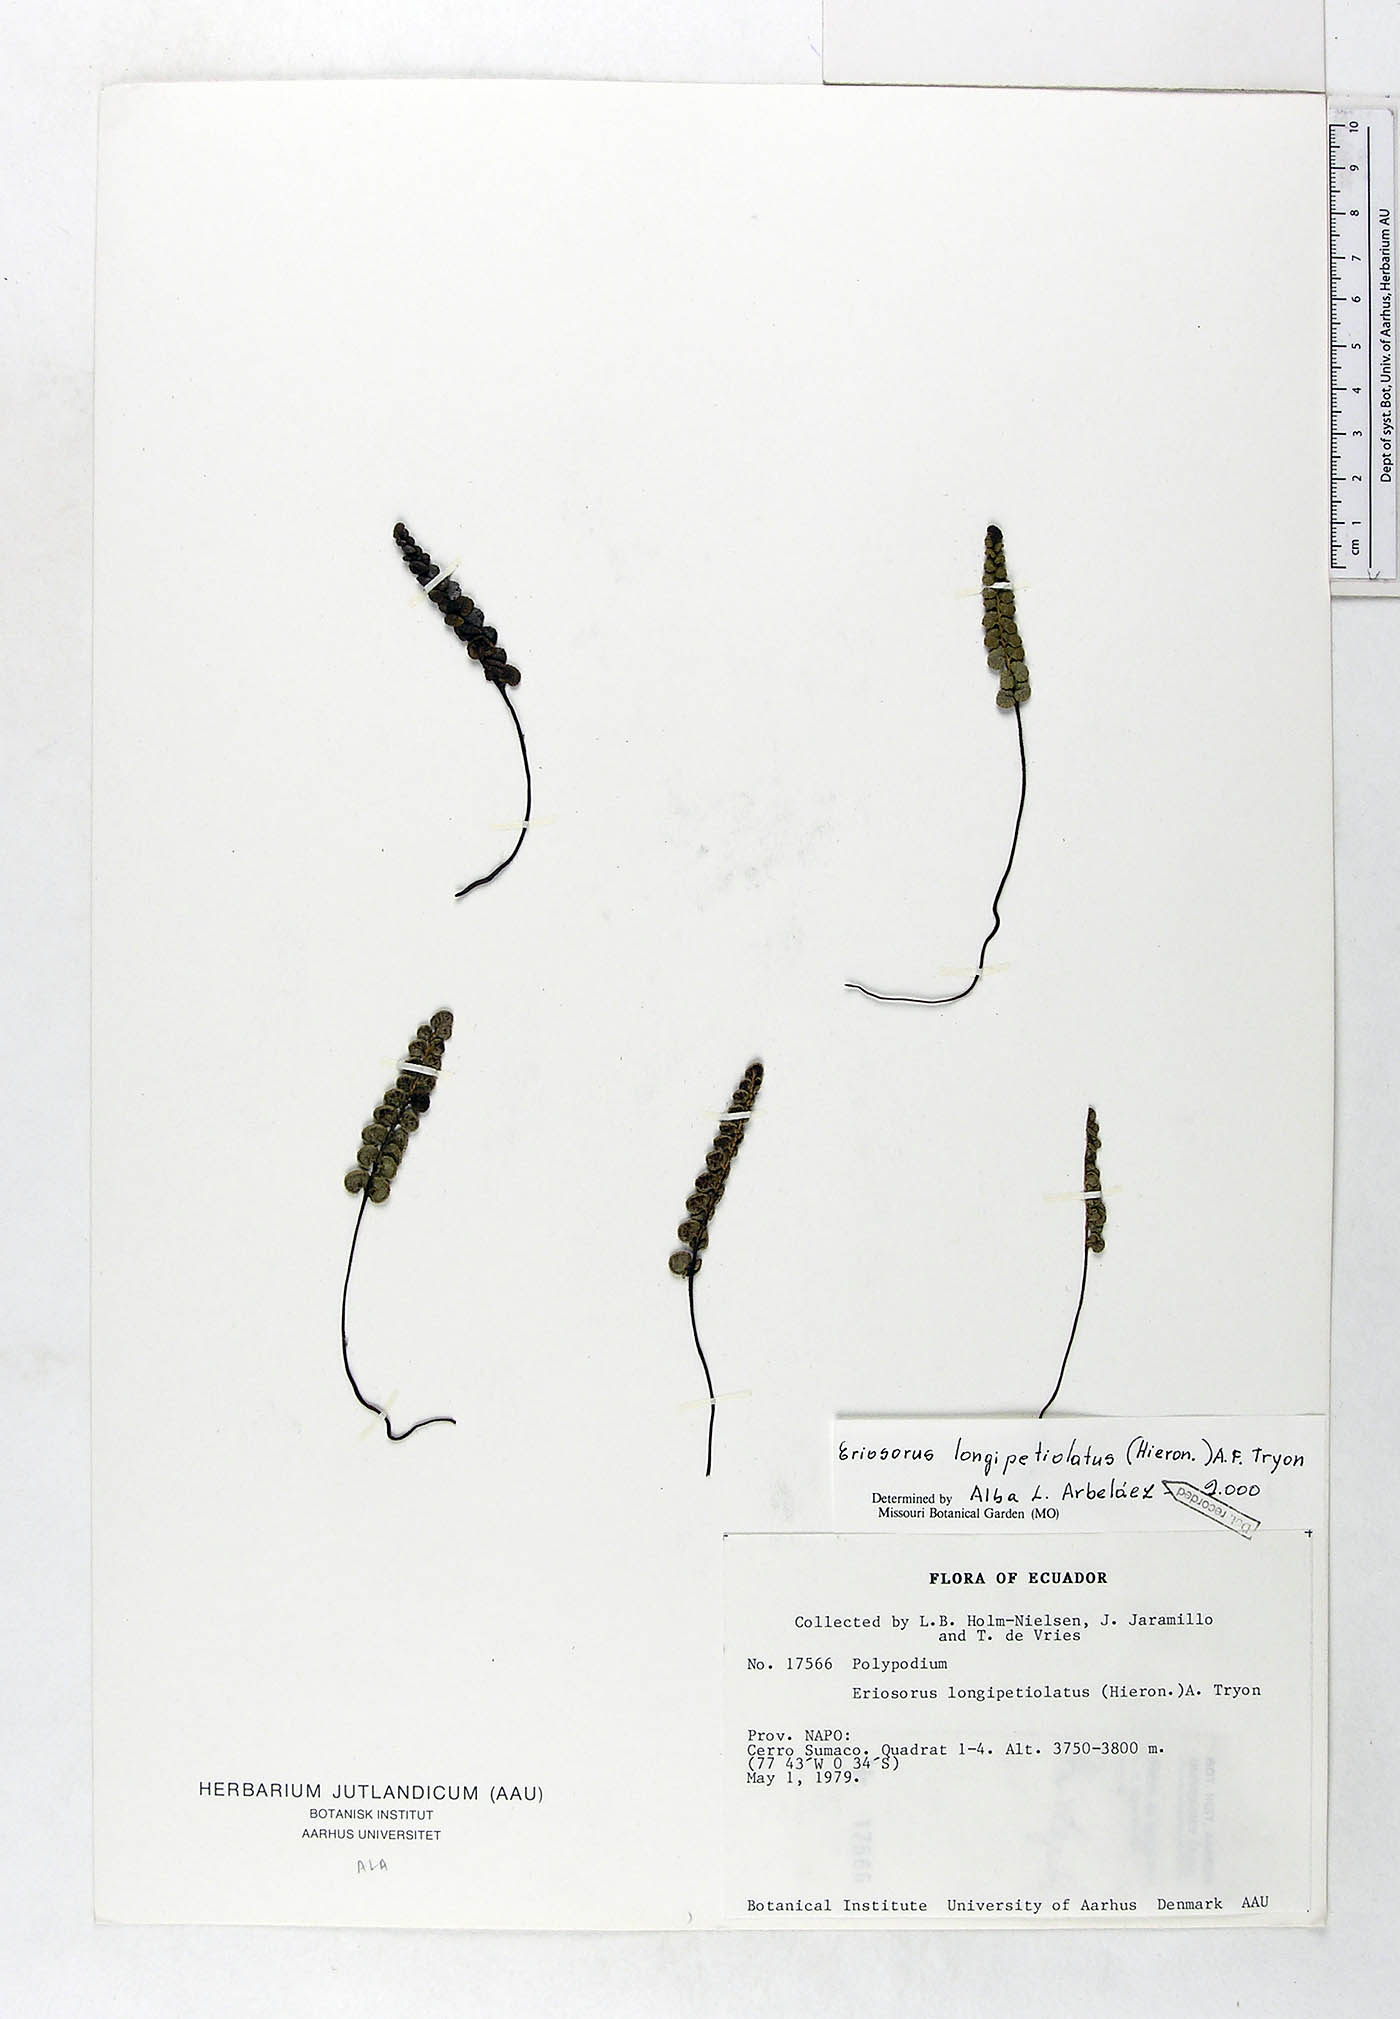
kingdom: Plantae
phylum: Tracheophyta
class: Polypodiopsida
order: Polypodiales
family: Pteridaceae
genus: Jamesonia
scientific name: Jamesonia longipetiolata
